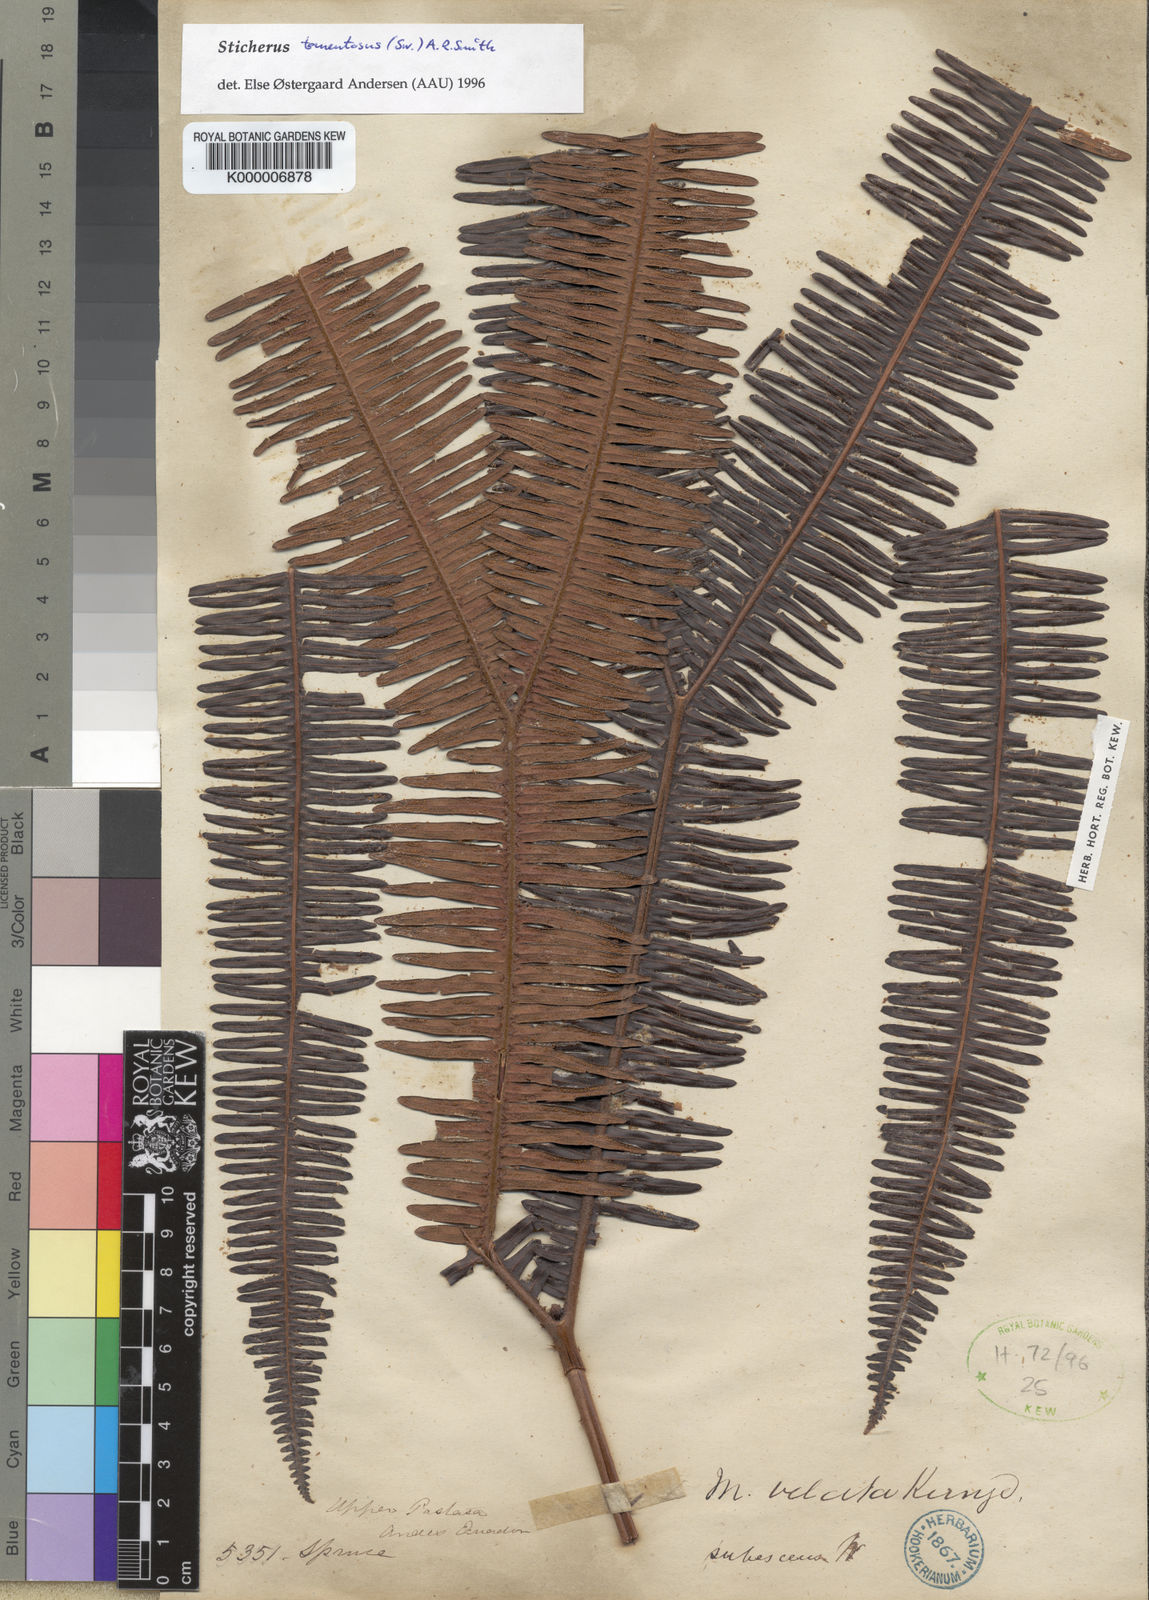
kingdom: Plantae
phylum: Tracheophyta
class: Polypodiopsida
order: Gleicheniales
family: Gleicheniaceae
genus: Sticherus
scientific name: Sticherus tomentosus
